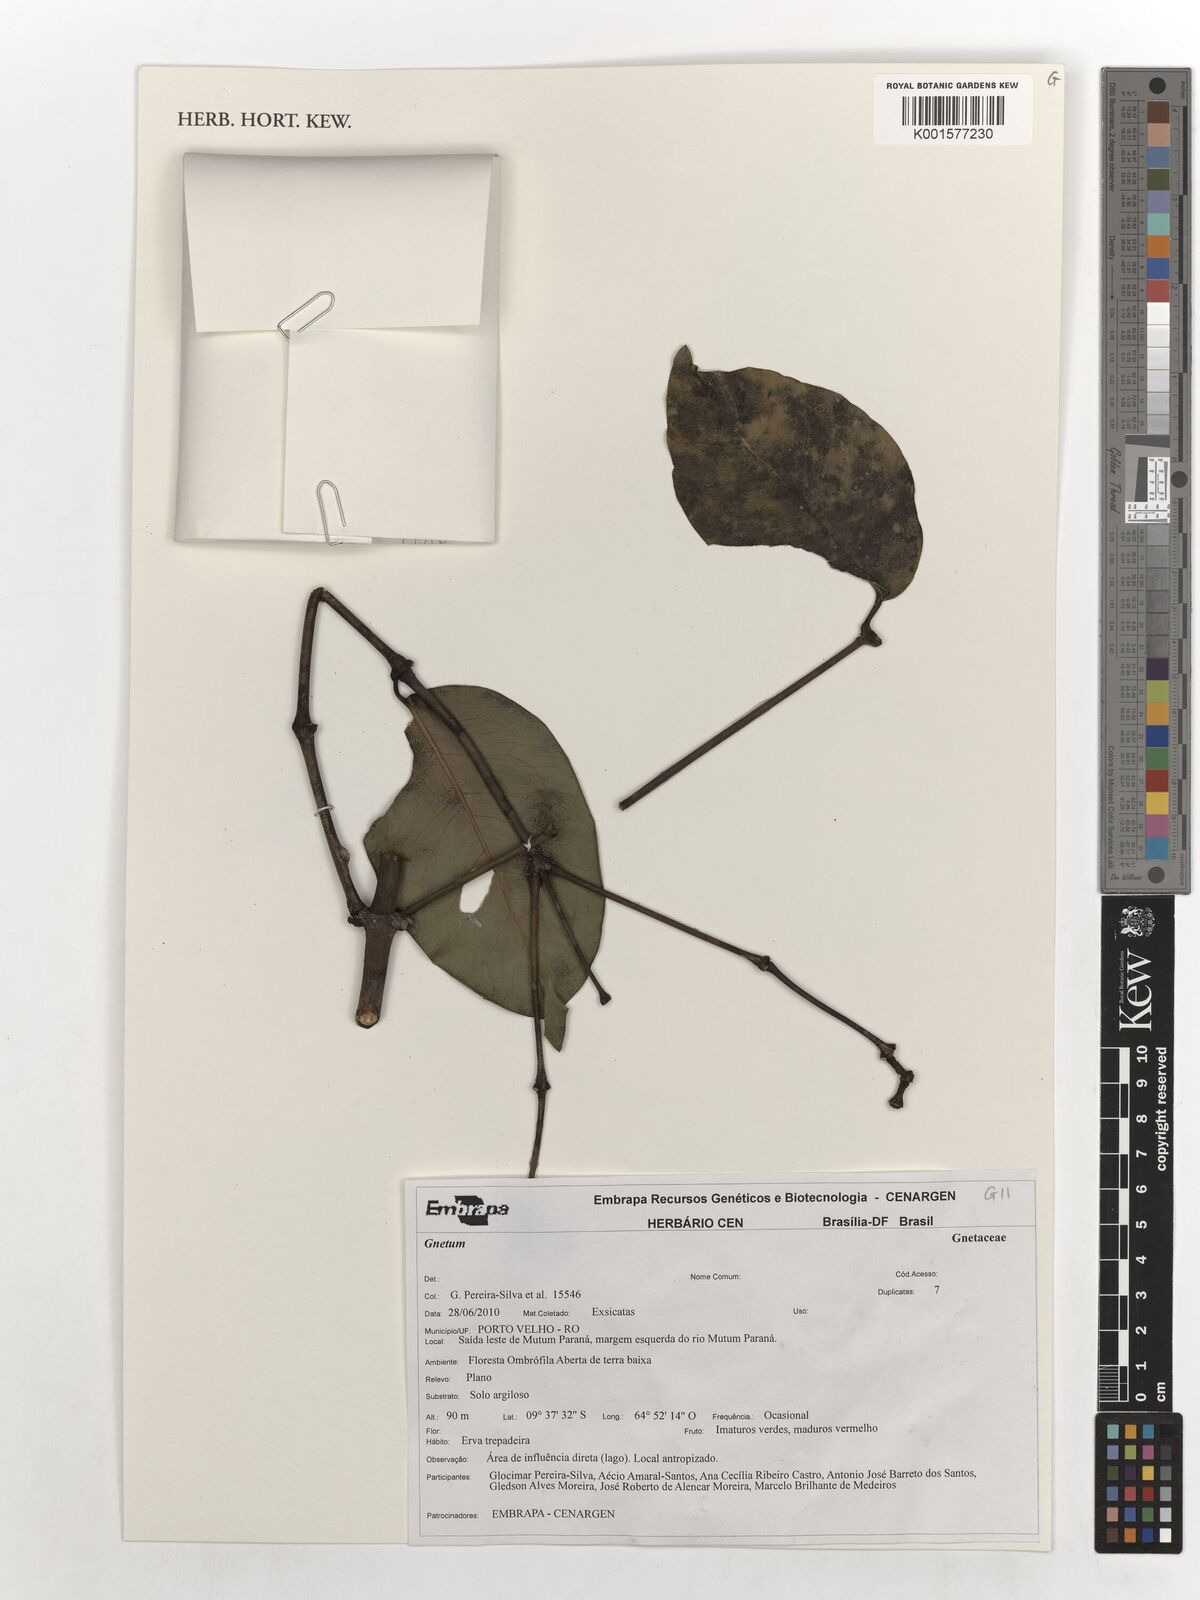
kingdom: Plantae
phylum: Tracheophyta
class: Gnetopsida
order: Gnetales
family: Gnetaceae
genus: Gnetum
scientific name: Gnetum
